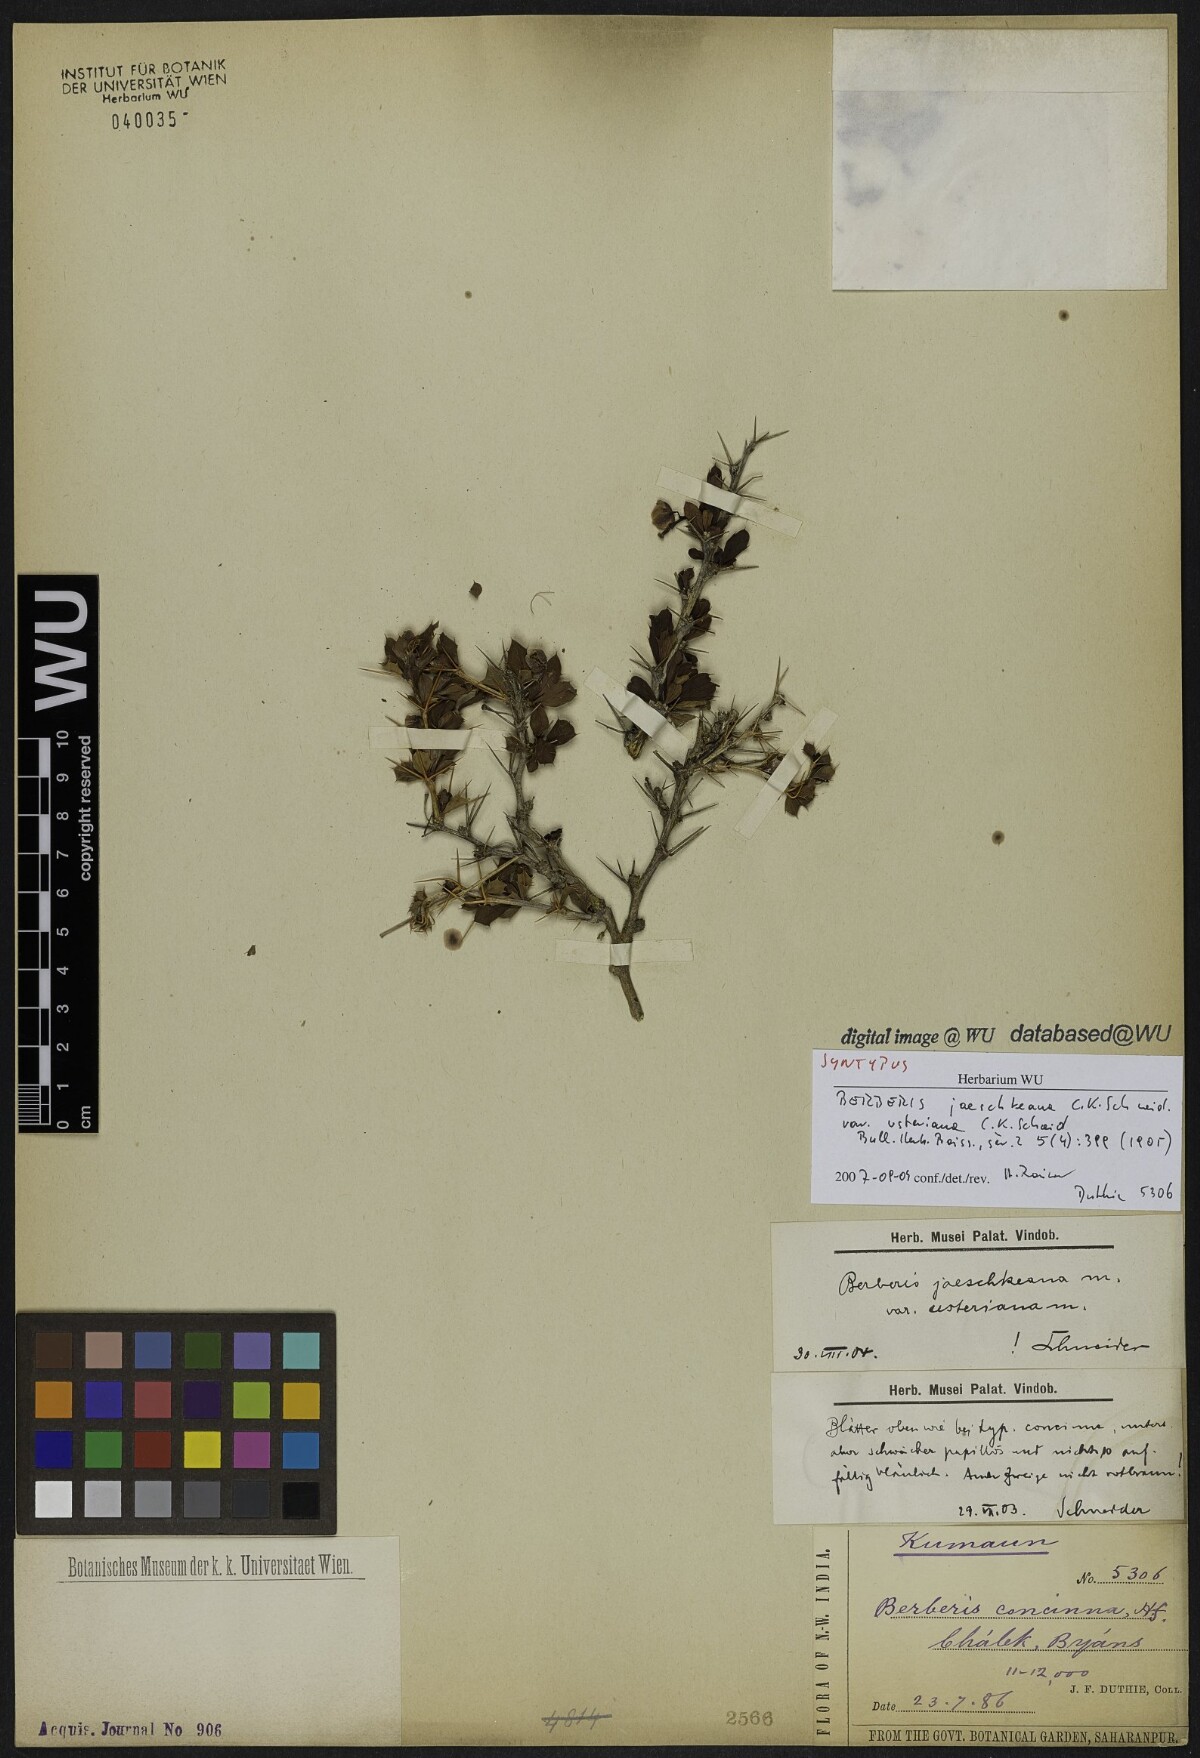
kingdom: Plantae
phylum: Tracheophyta
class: Magnoliopsida
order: Ranunculales
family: Berberidaceae
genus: Berberis
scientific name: Berberis jaeschkeana
